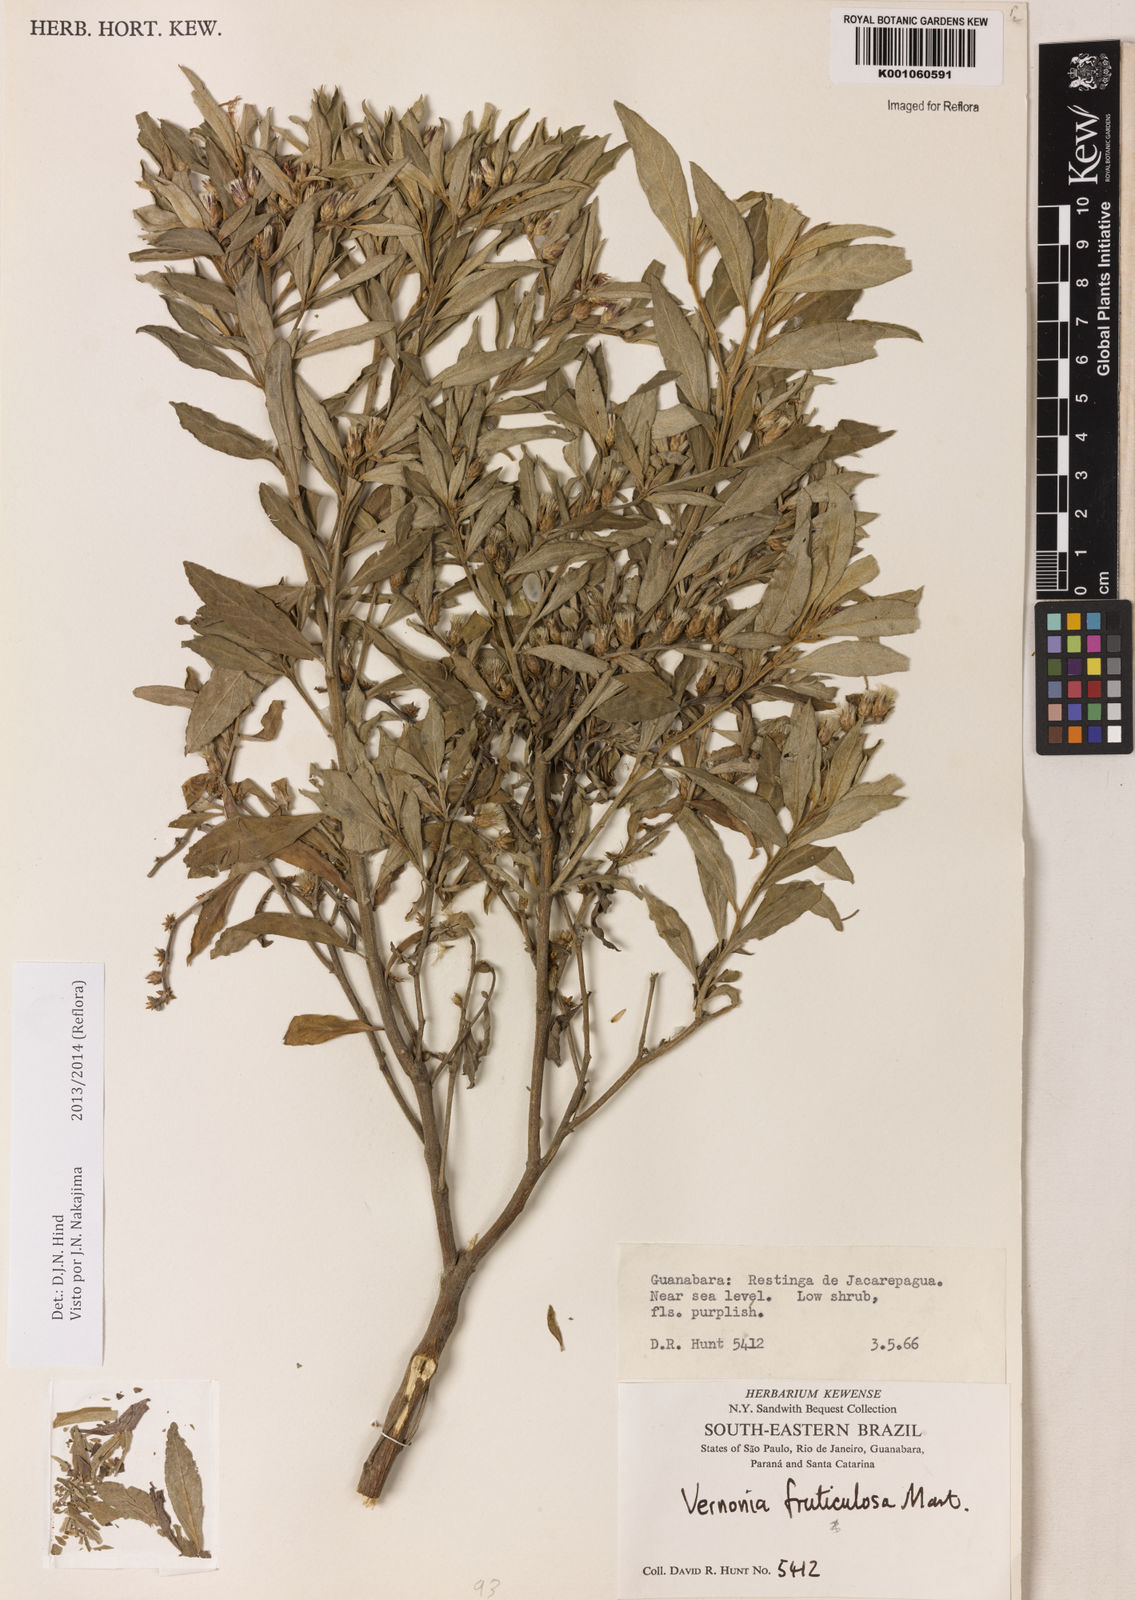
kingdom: Plantae
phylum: Tracheophyta
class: Magnoliopsida
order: Asterales
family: Asteraceae
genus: Lepidaploa
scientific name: Lepidaploa rufogrisea
